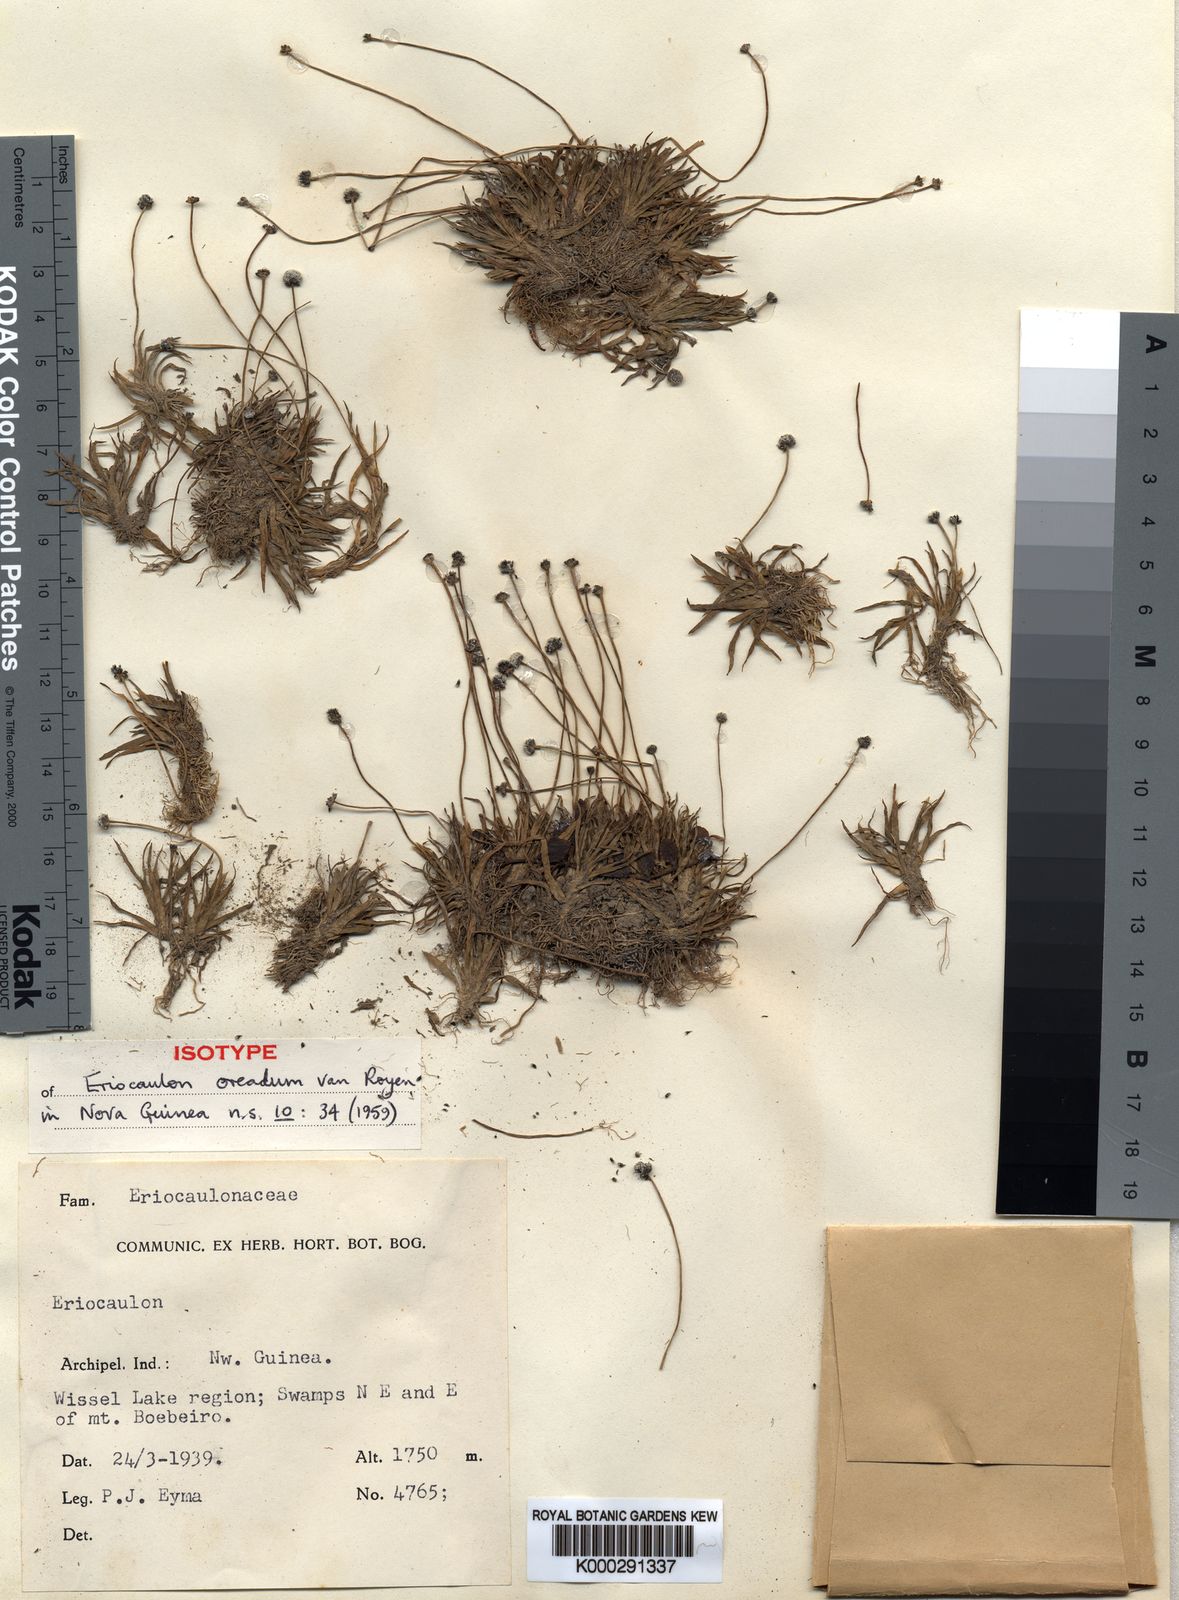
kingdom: Plantae
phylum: Tracheophyta
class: Liliopsida
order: Poales
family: Eriocaulaceae
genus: Eriocaulon
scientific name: Eriocaulon oreadum
